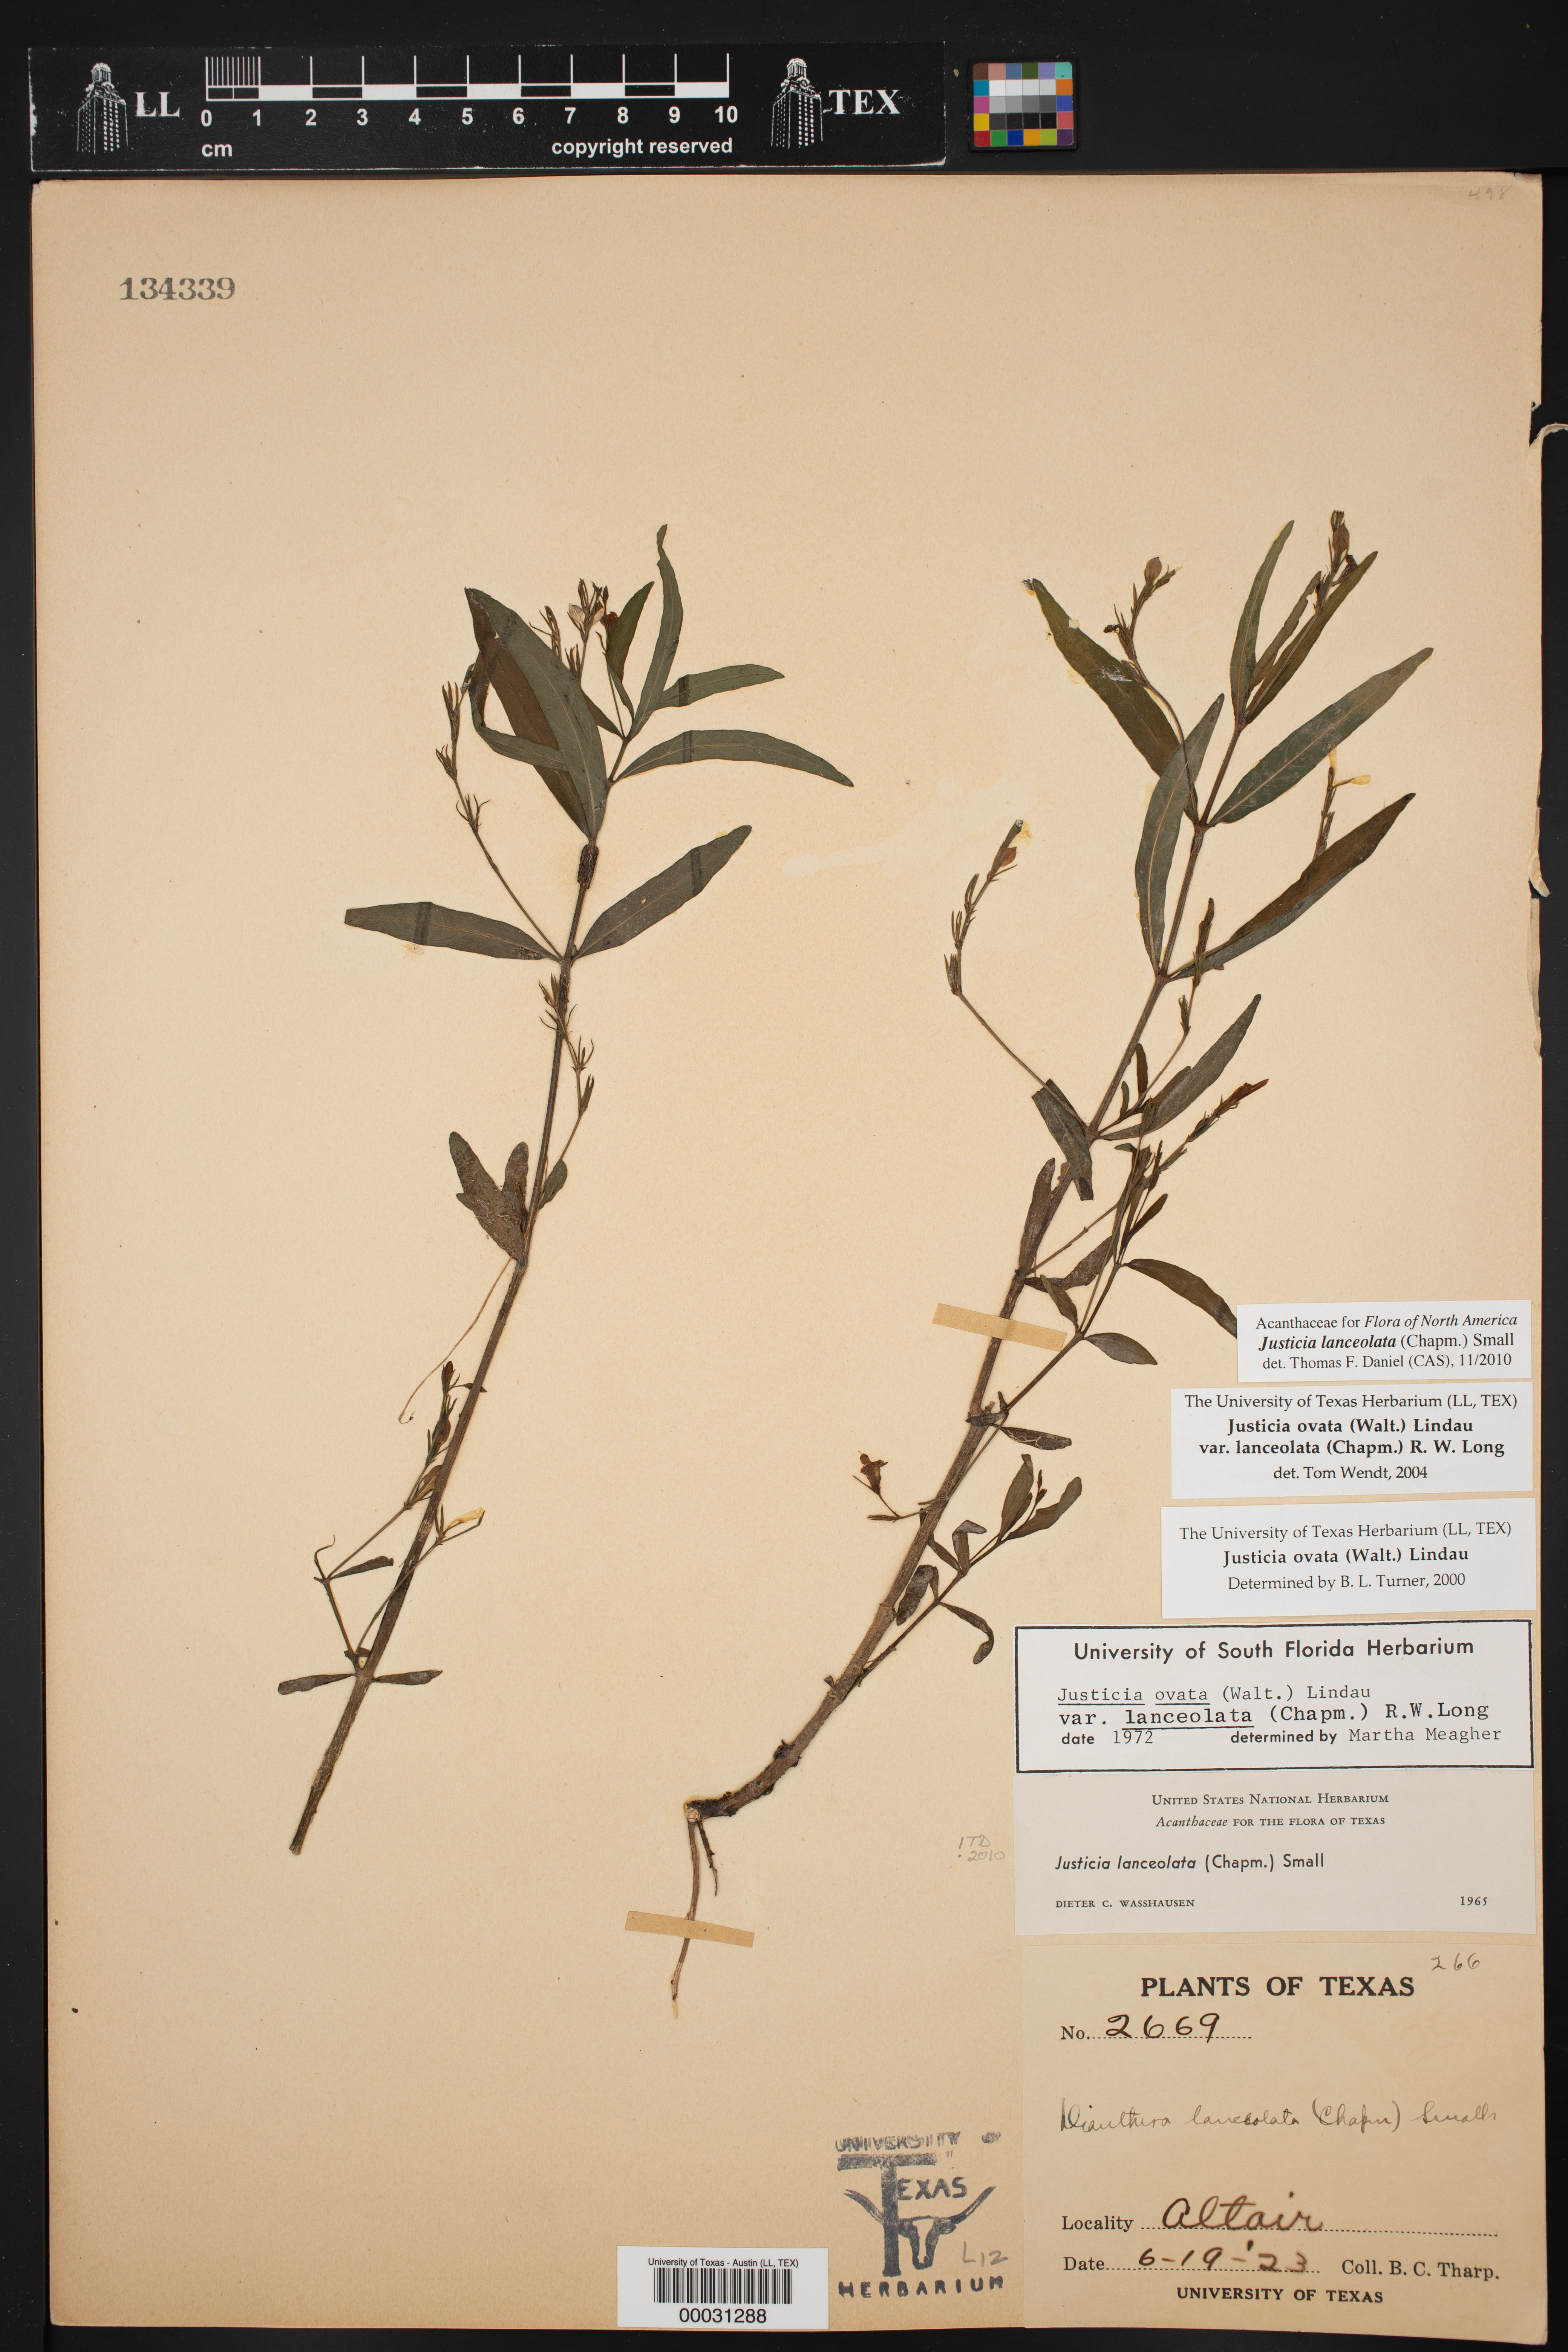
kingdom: Plantae
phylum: Tracheophyta
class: Magnoliopsida
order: Lamiales
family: Acanthaceae
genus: Justicia
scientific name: Justicia lanceolata
